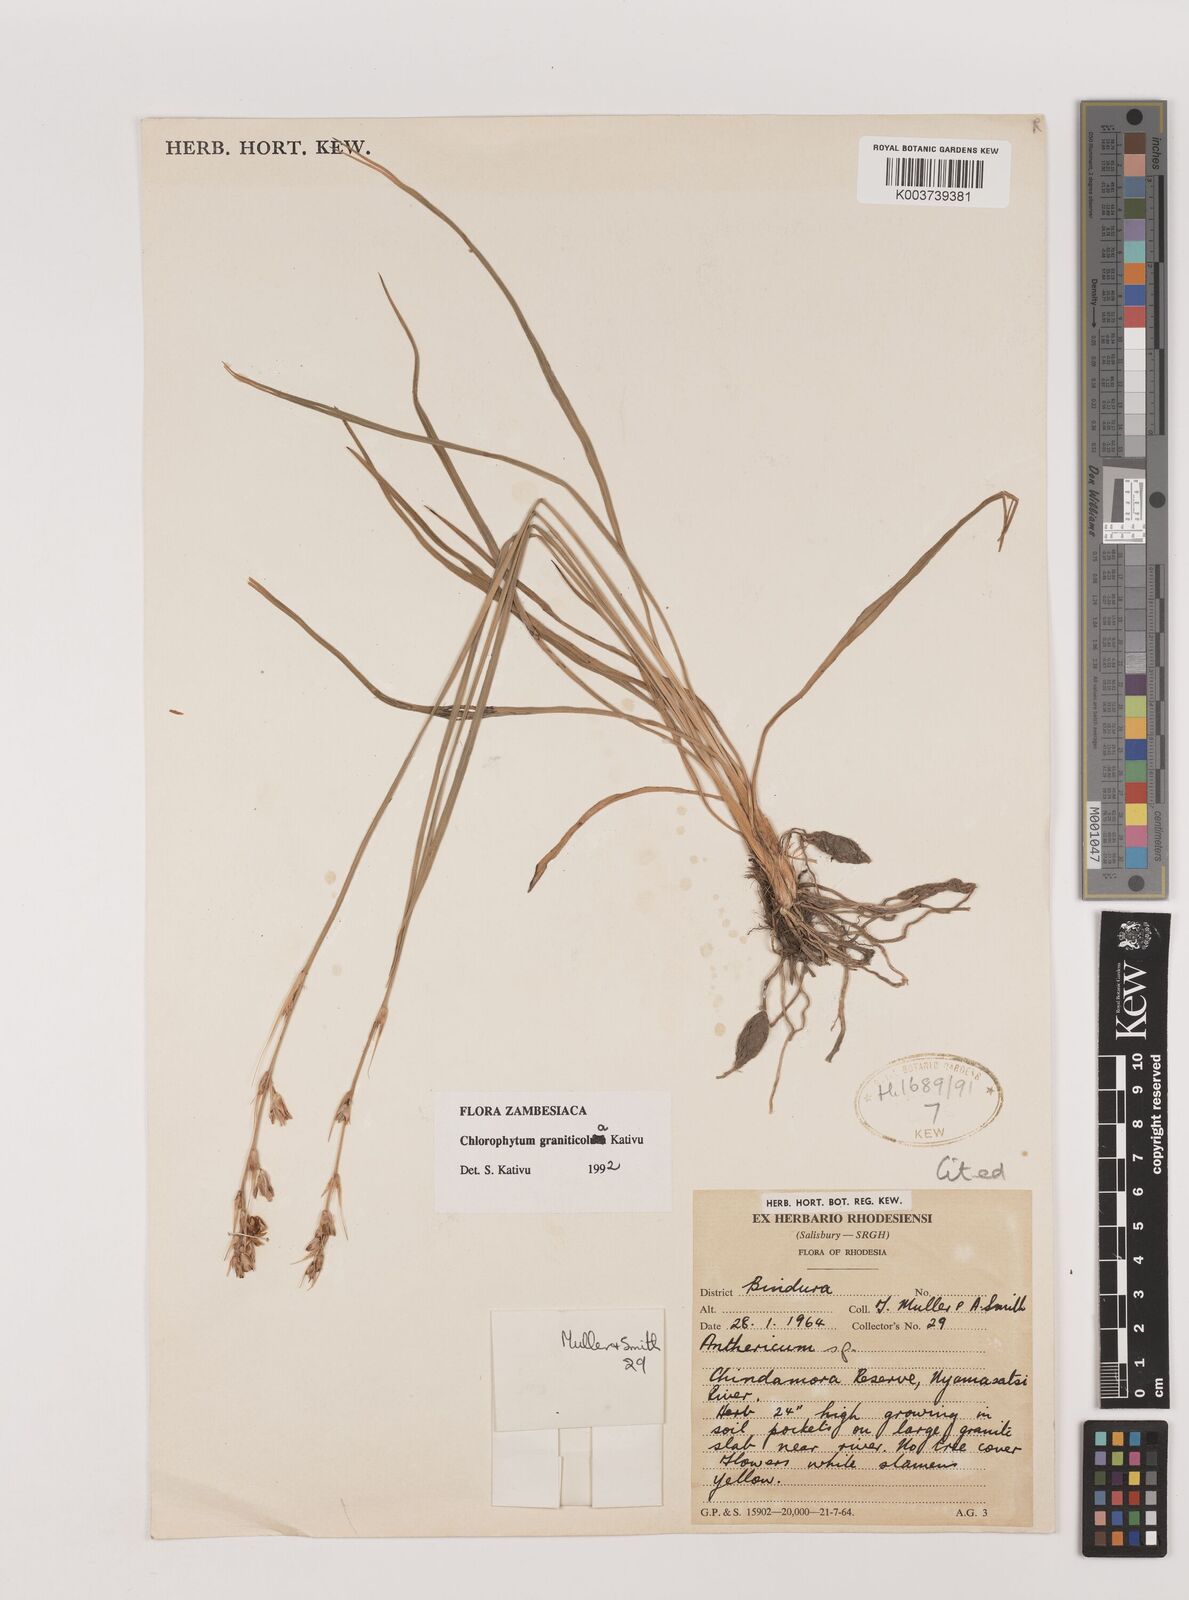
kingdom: Plantae
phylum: Tracheophyta
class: Liliopsida
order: Asparagales
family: Asparagaceae
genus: Chlorophytum
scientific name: Chlorophytum graniticola
